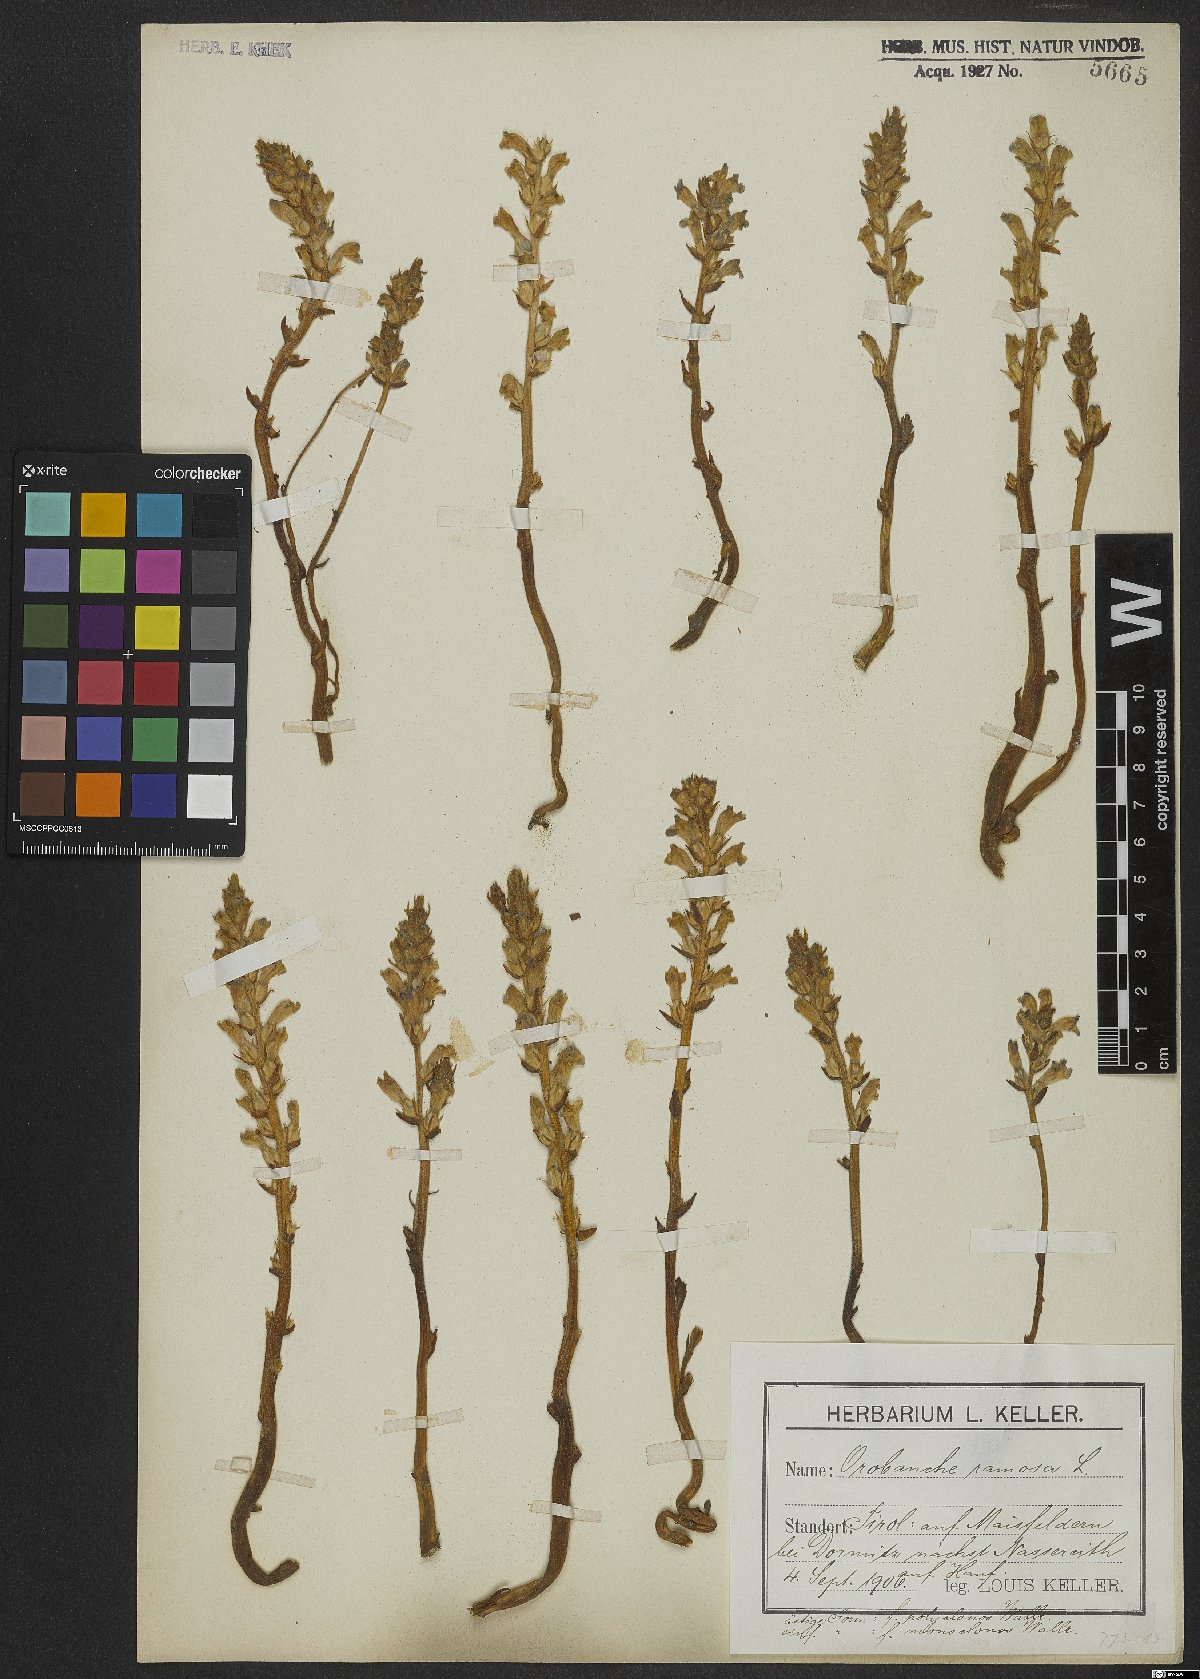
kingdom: Plantae
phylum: Tracheophyta
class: Magnoliopsida
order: Lamiales
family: Orobanchaceae
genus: Phelipanche
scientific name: Phelipanche ramosa
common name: Branched broomrape
